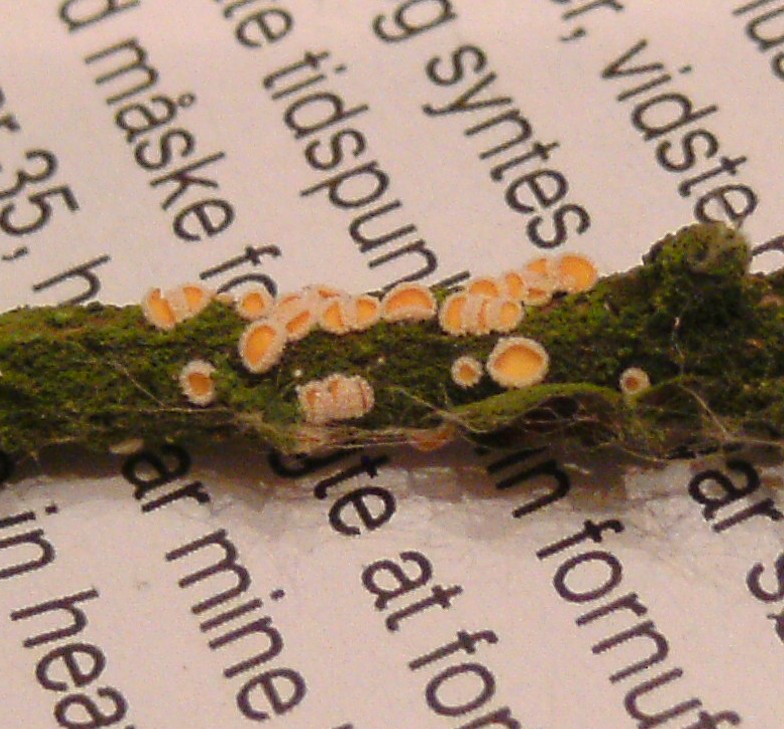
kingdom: Fungi
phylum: Ascomycota
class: Leotiomycetes
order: Helotiales
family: Lachnaceae
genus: Capitotricha
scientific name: Capitotricha bicolor
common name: prægtig frynseskive
